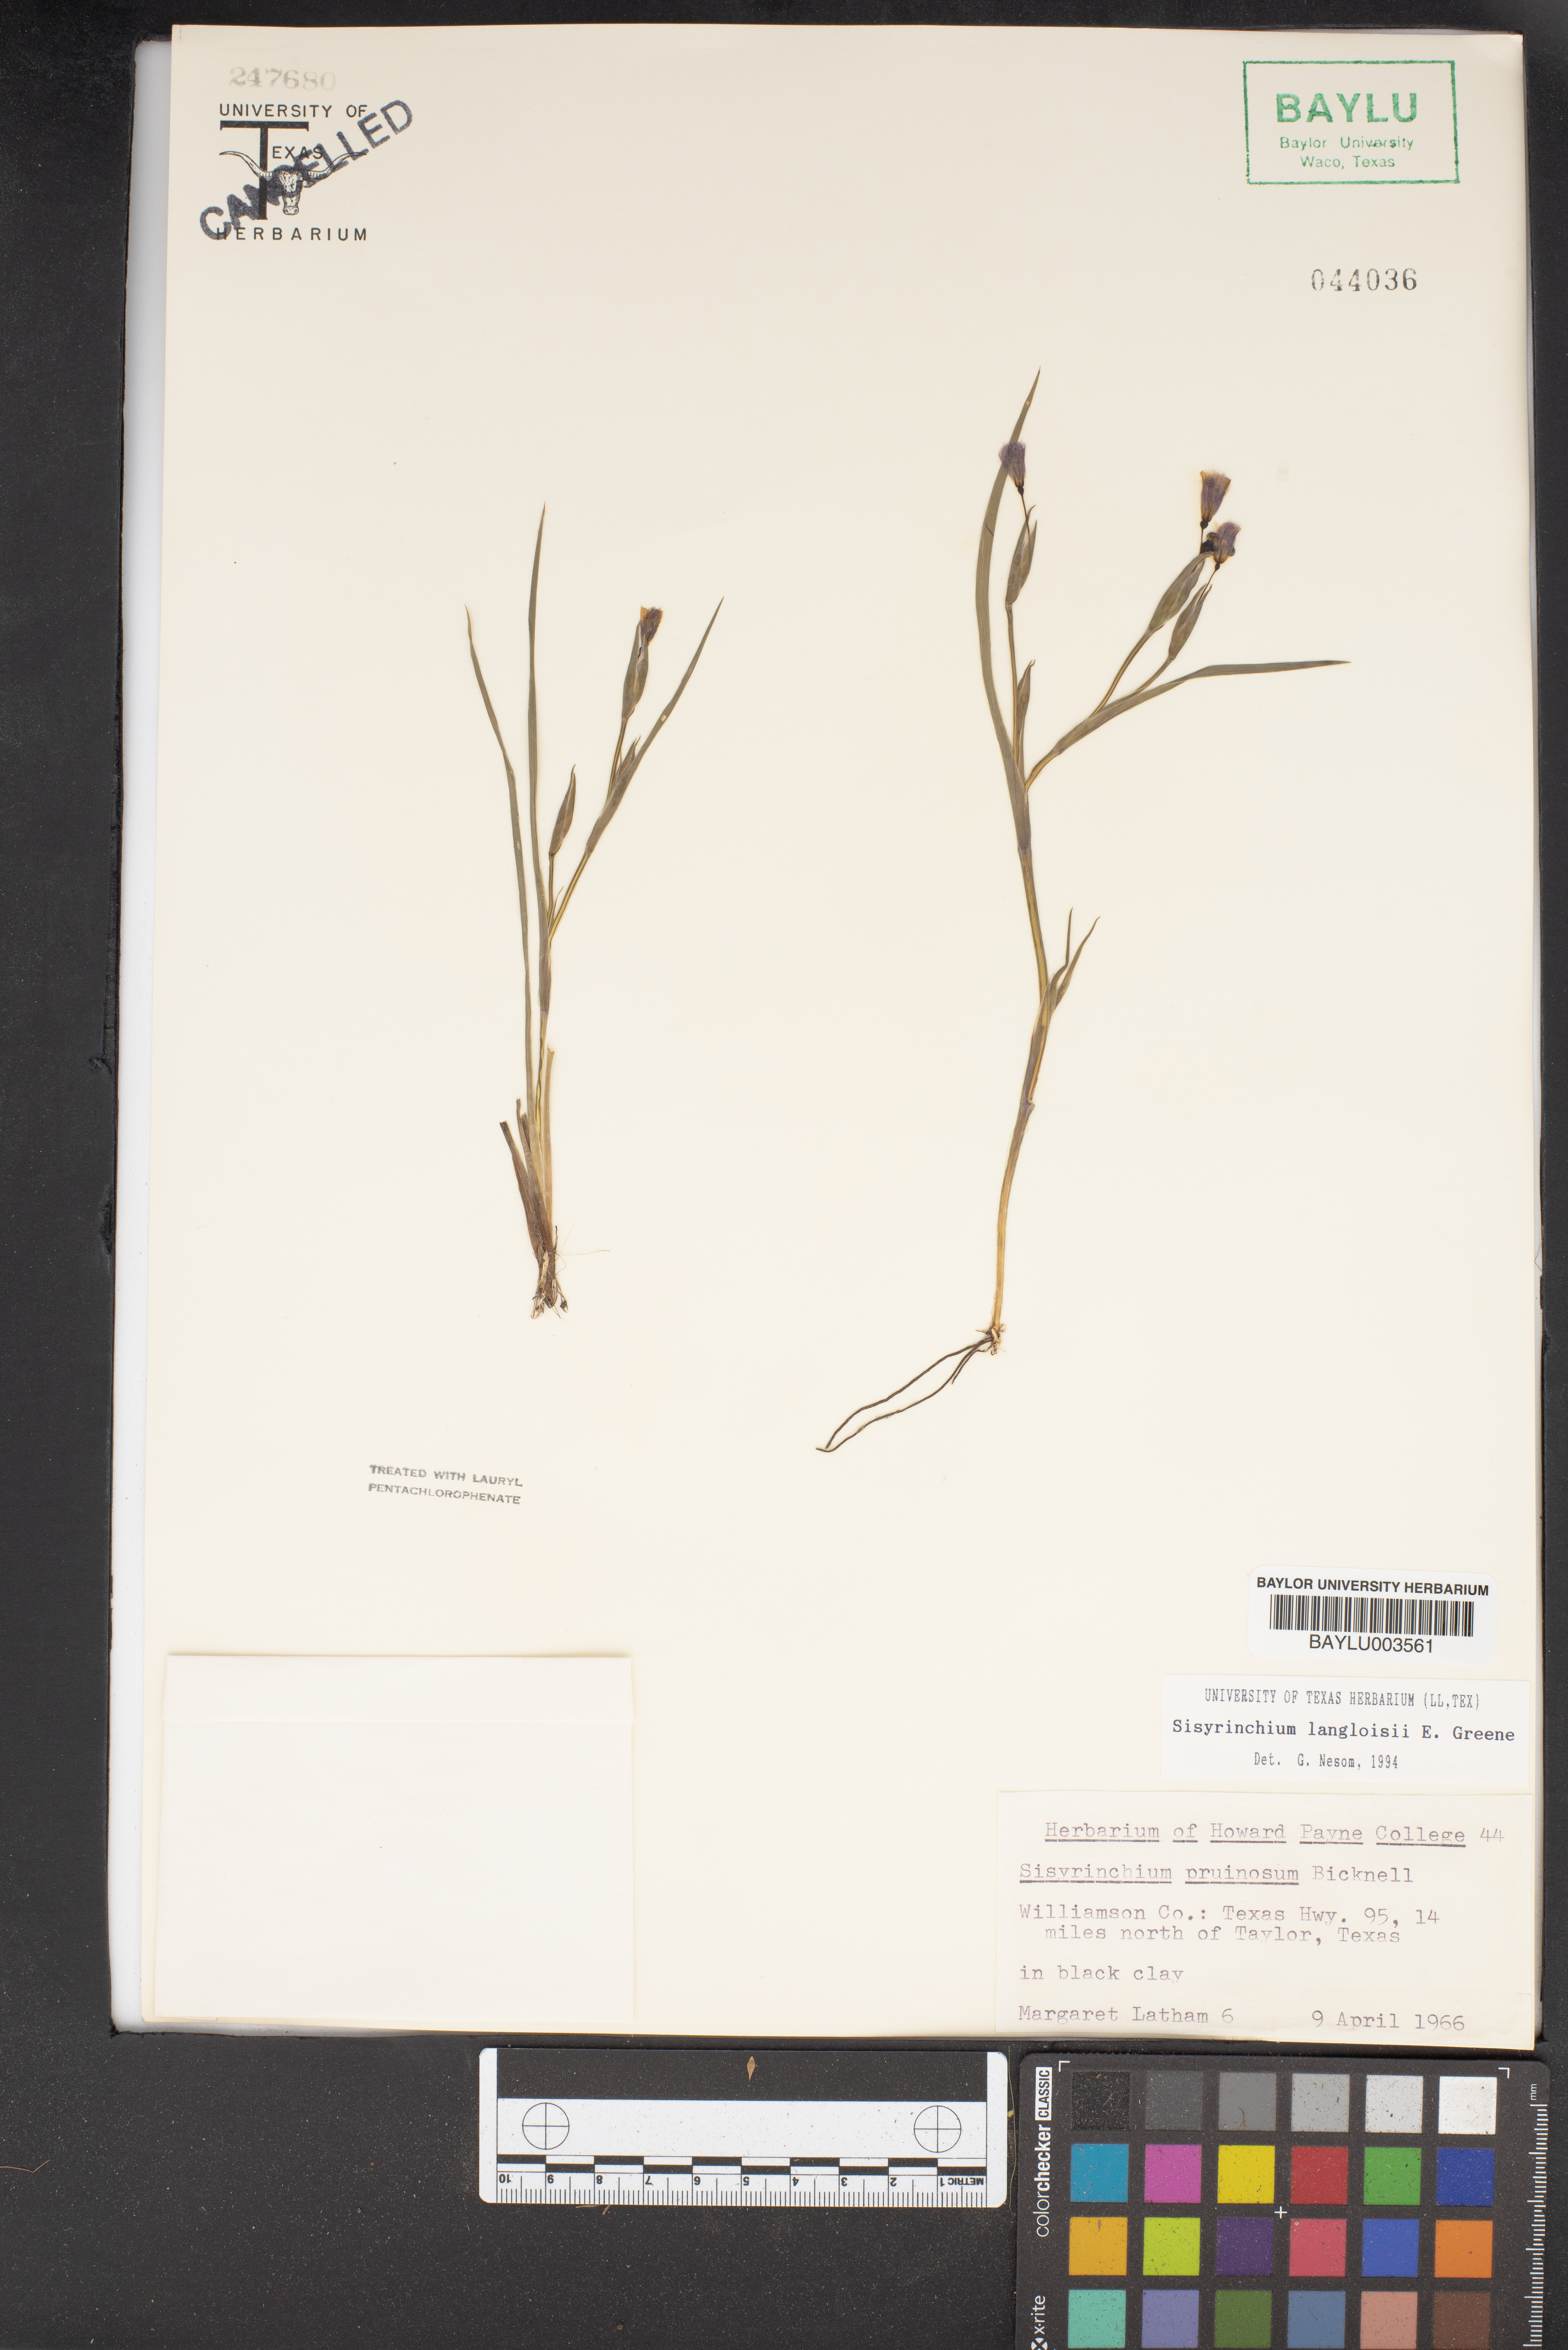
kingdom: Plantae
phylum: Tracheophyta
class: Liliopsida
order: Asparagales
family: Iridaceae
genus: Sisyrinchium
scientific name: Sisyrinchium langloisii
